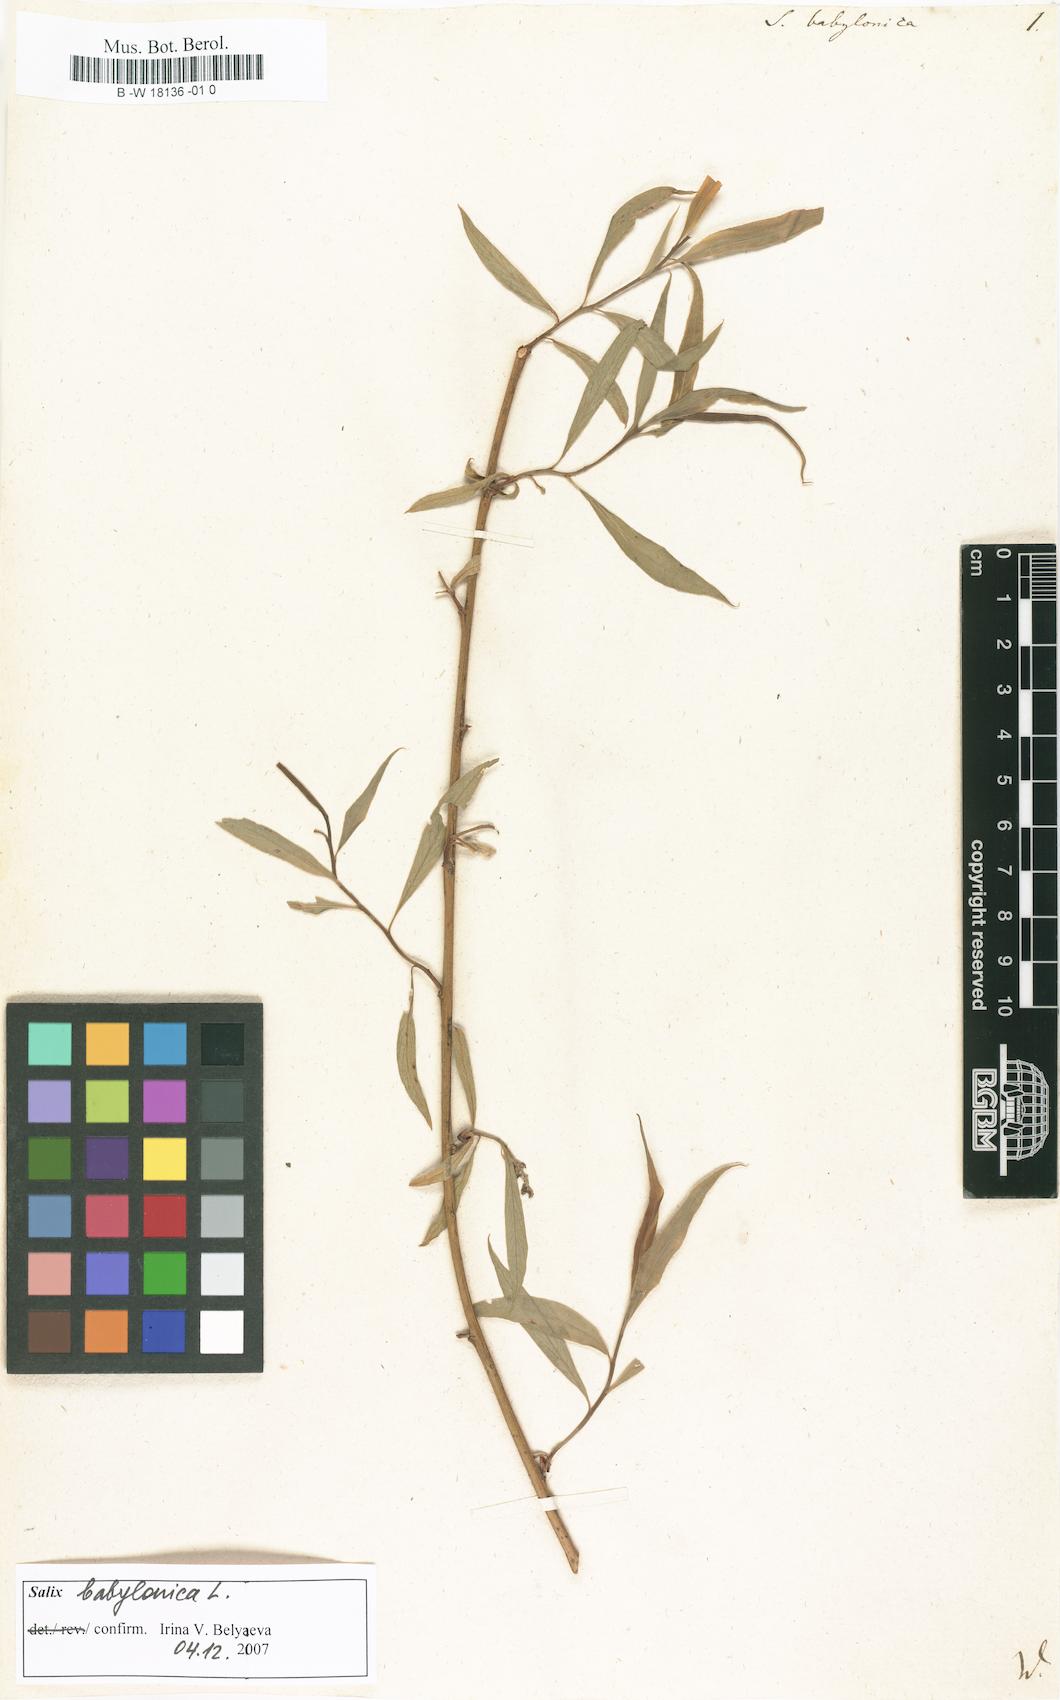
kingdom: Plantae
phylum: Tracheophyta
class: Magnoliopsida
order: Malpighiales
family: Salicaceae
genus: Salix
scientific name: Salix babylonica
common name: Weeping willow
